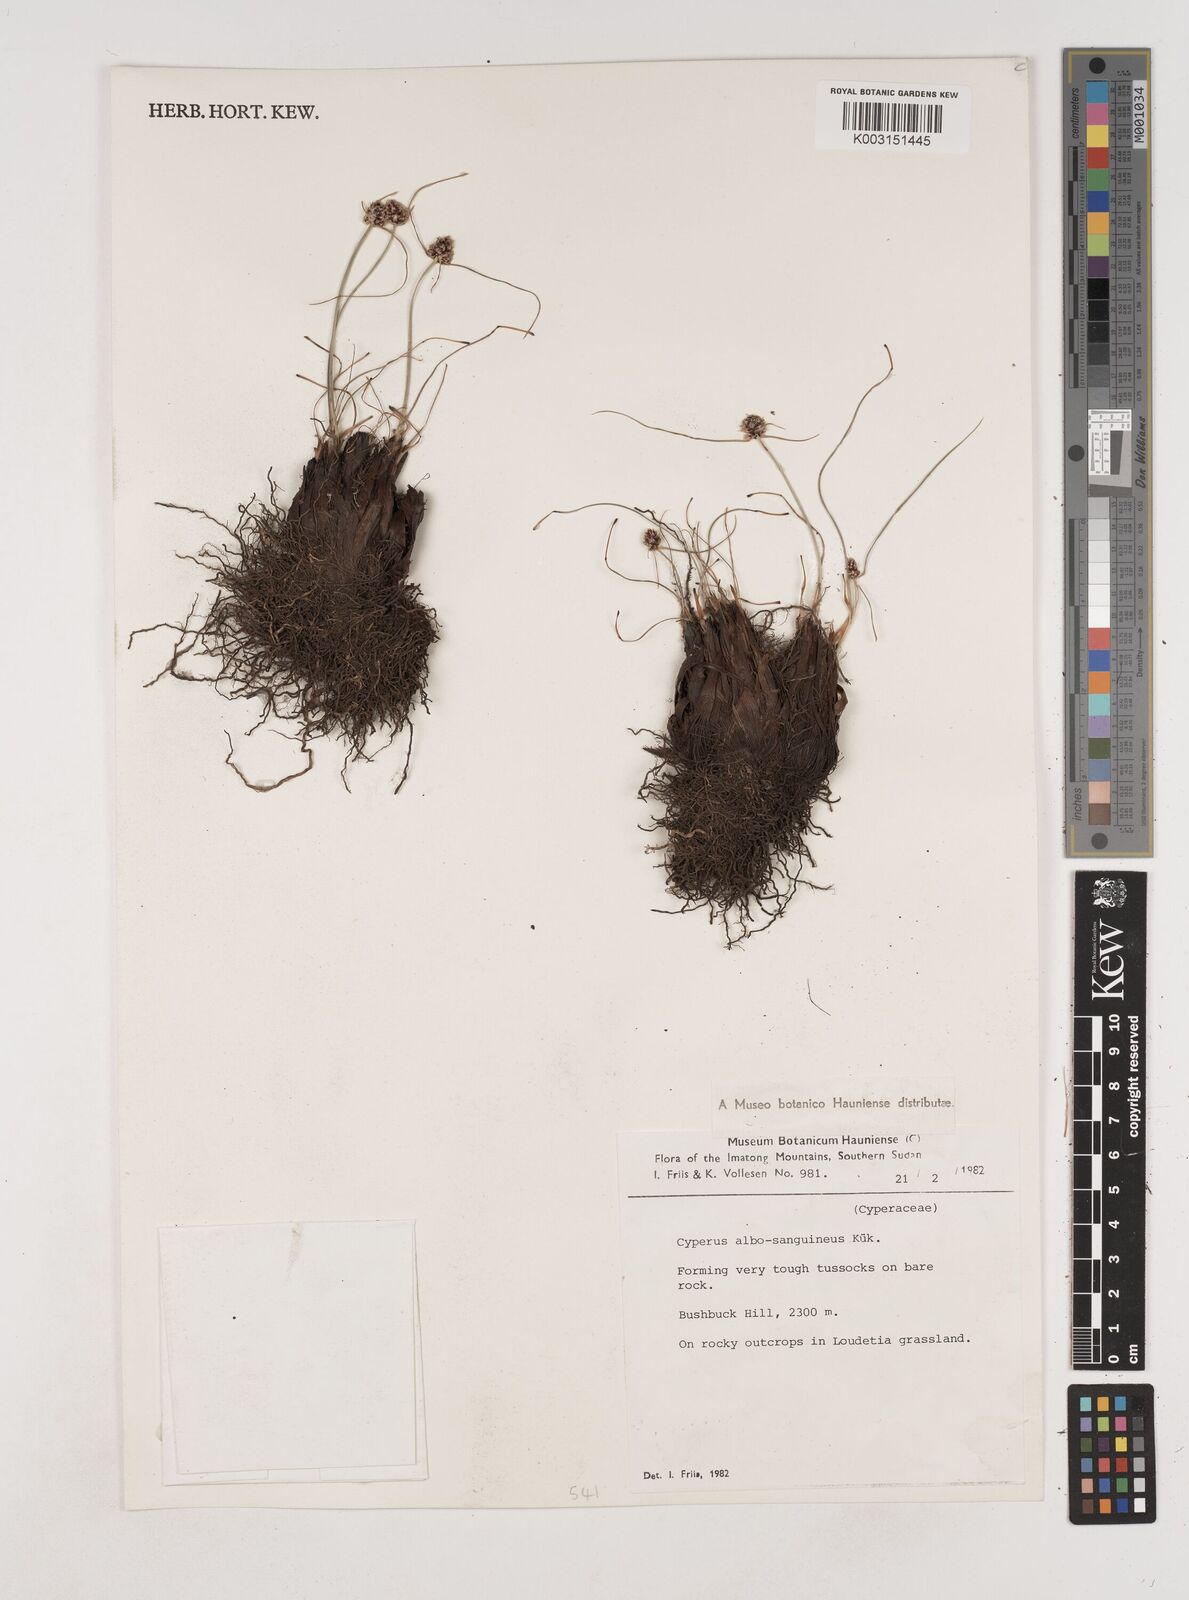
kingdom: Plantae
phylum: Tracheophyta
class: Liliopsida
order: Poales
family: Cyperaceae
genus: Cyperus
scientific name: Cyperus albosanguineus
